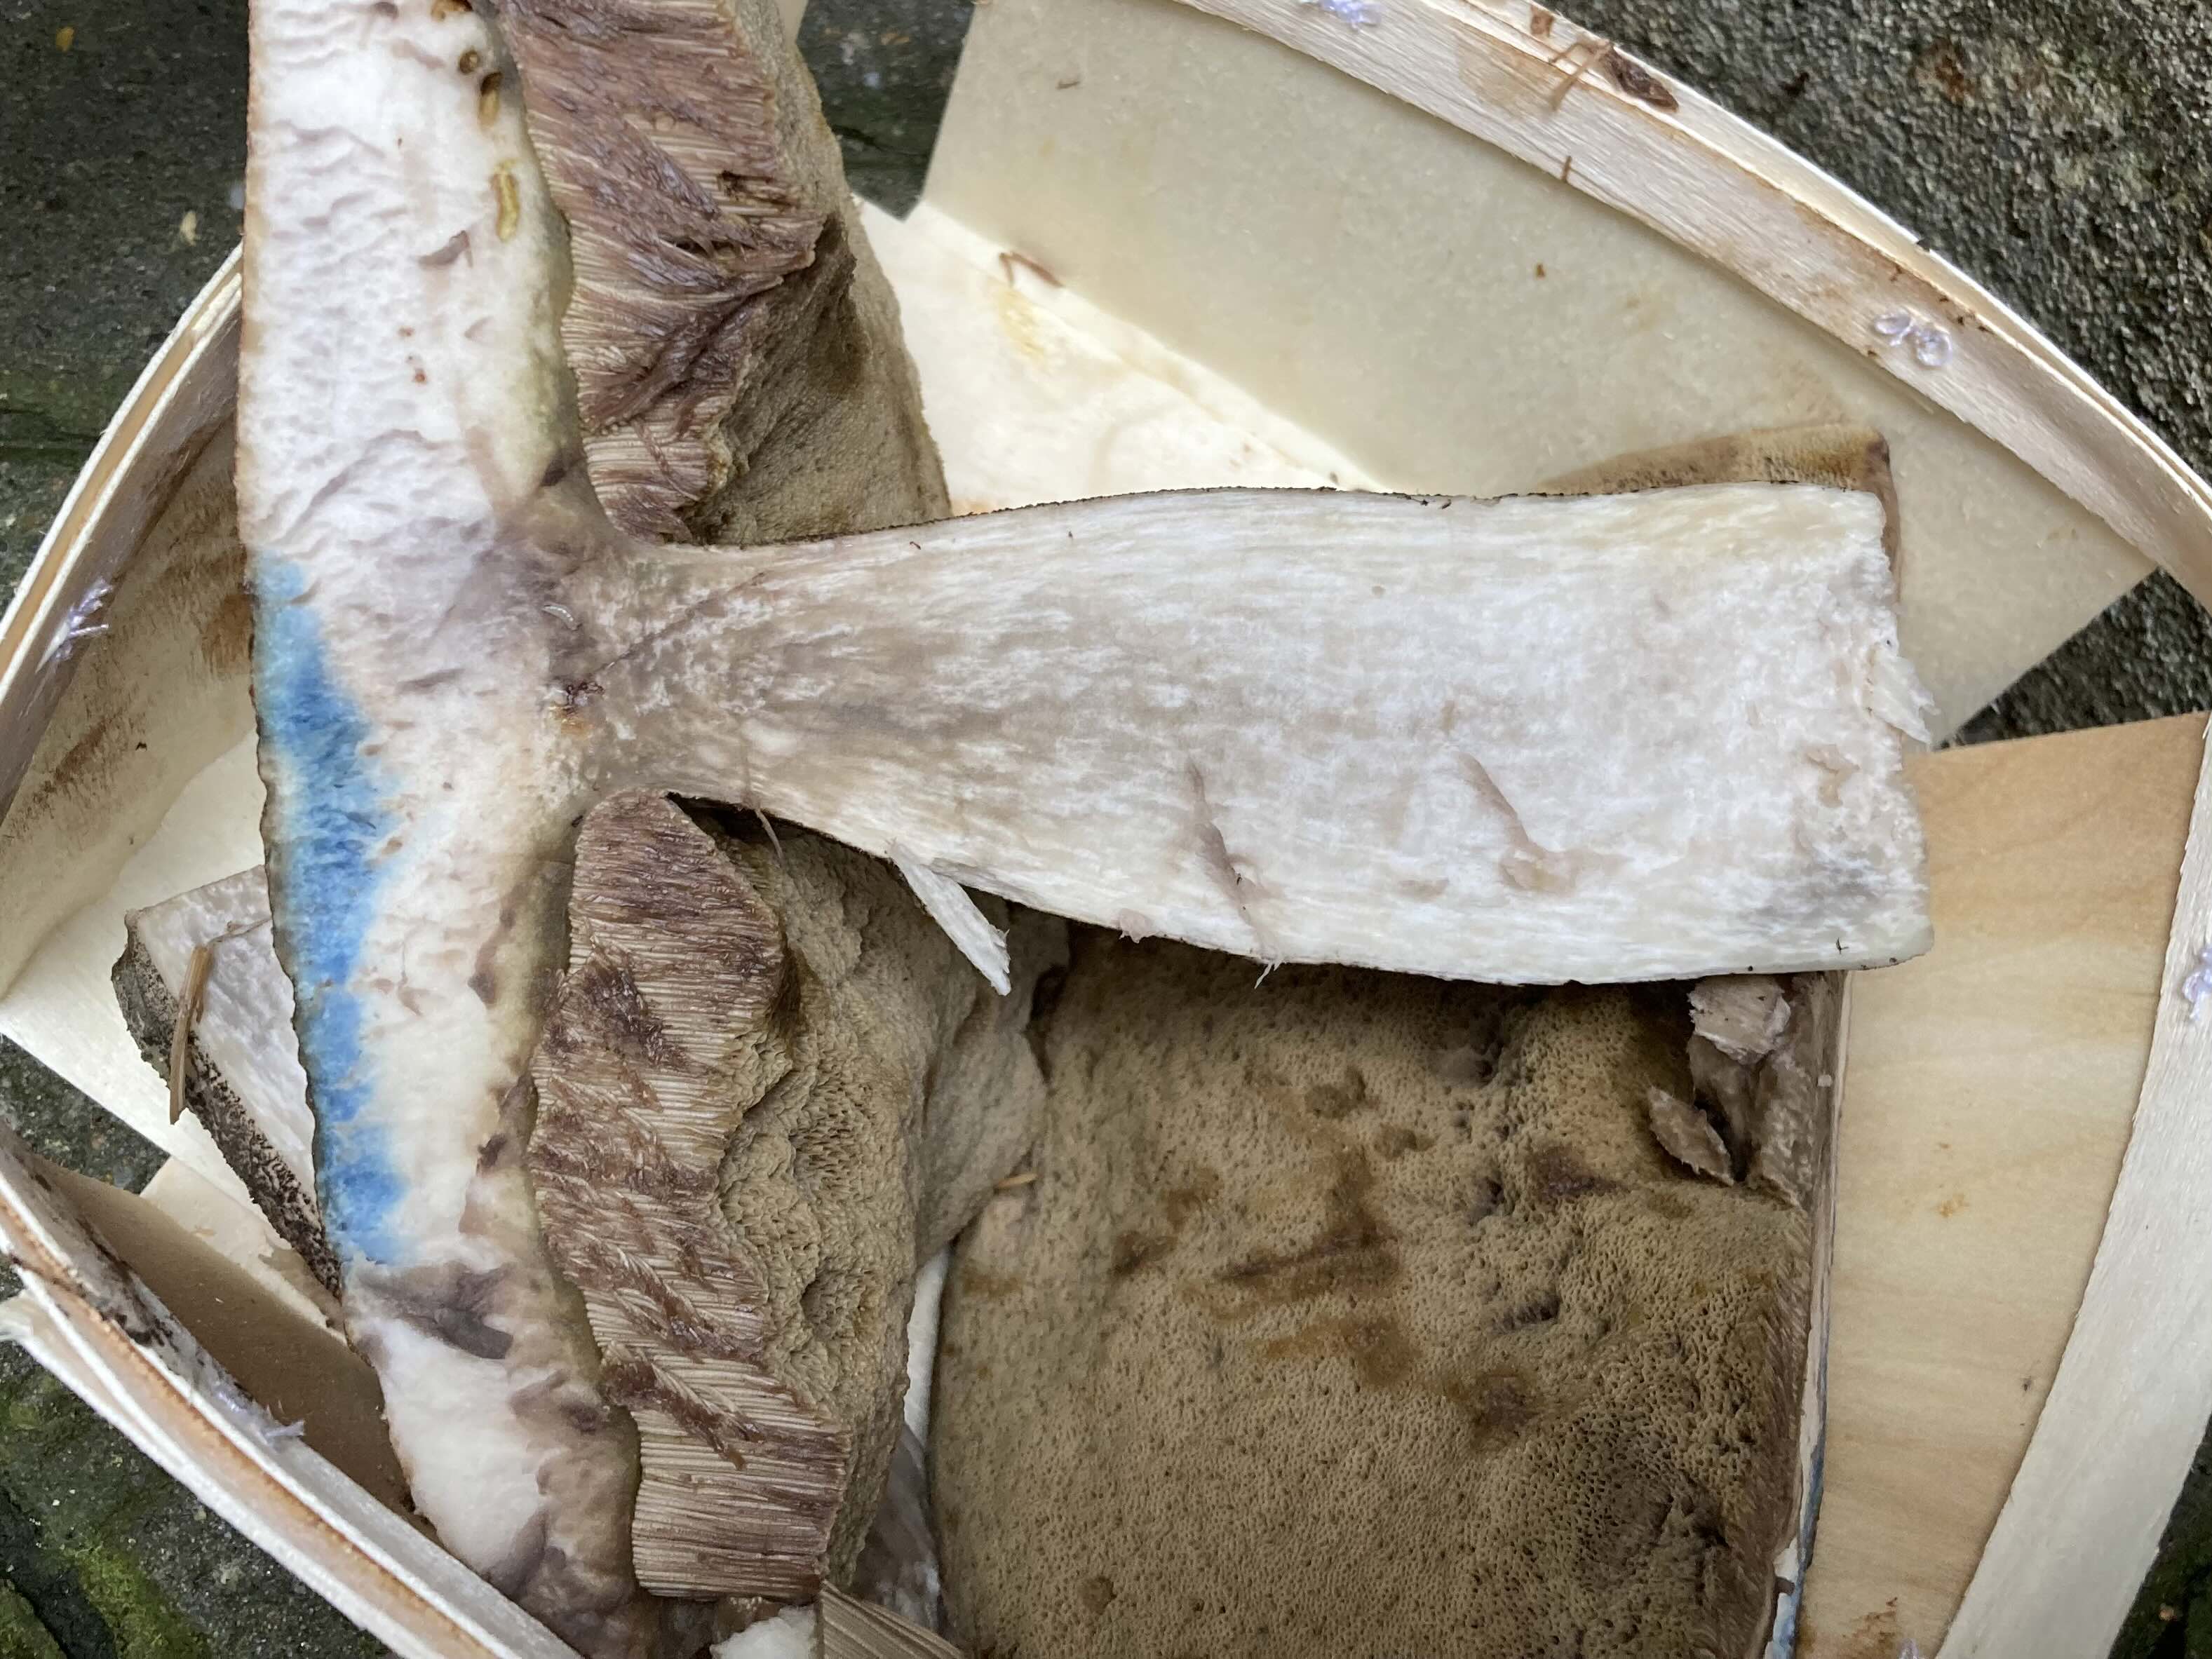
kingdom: Fungi
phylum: Basidiomycota
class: Agaricomycetes
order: Boletales
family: Boletaceae
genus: Leccinum
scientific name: Leccinum versipelle
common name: orange skælrørhat
